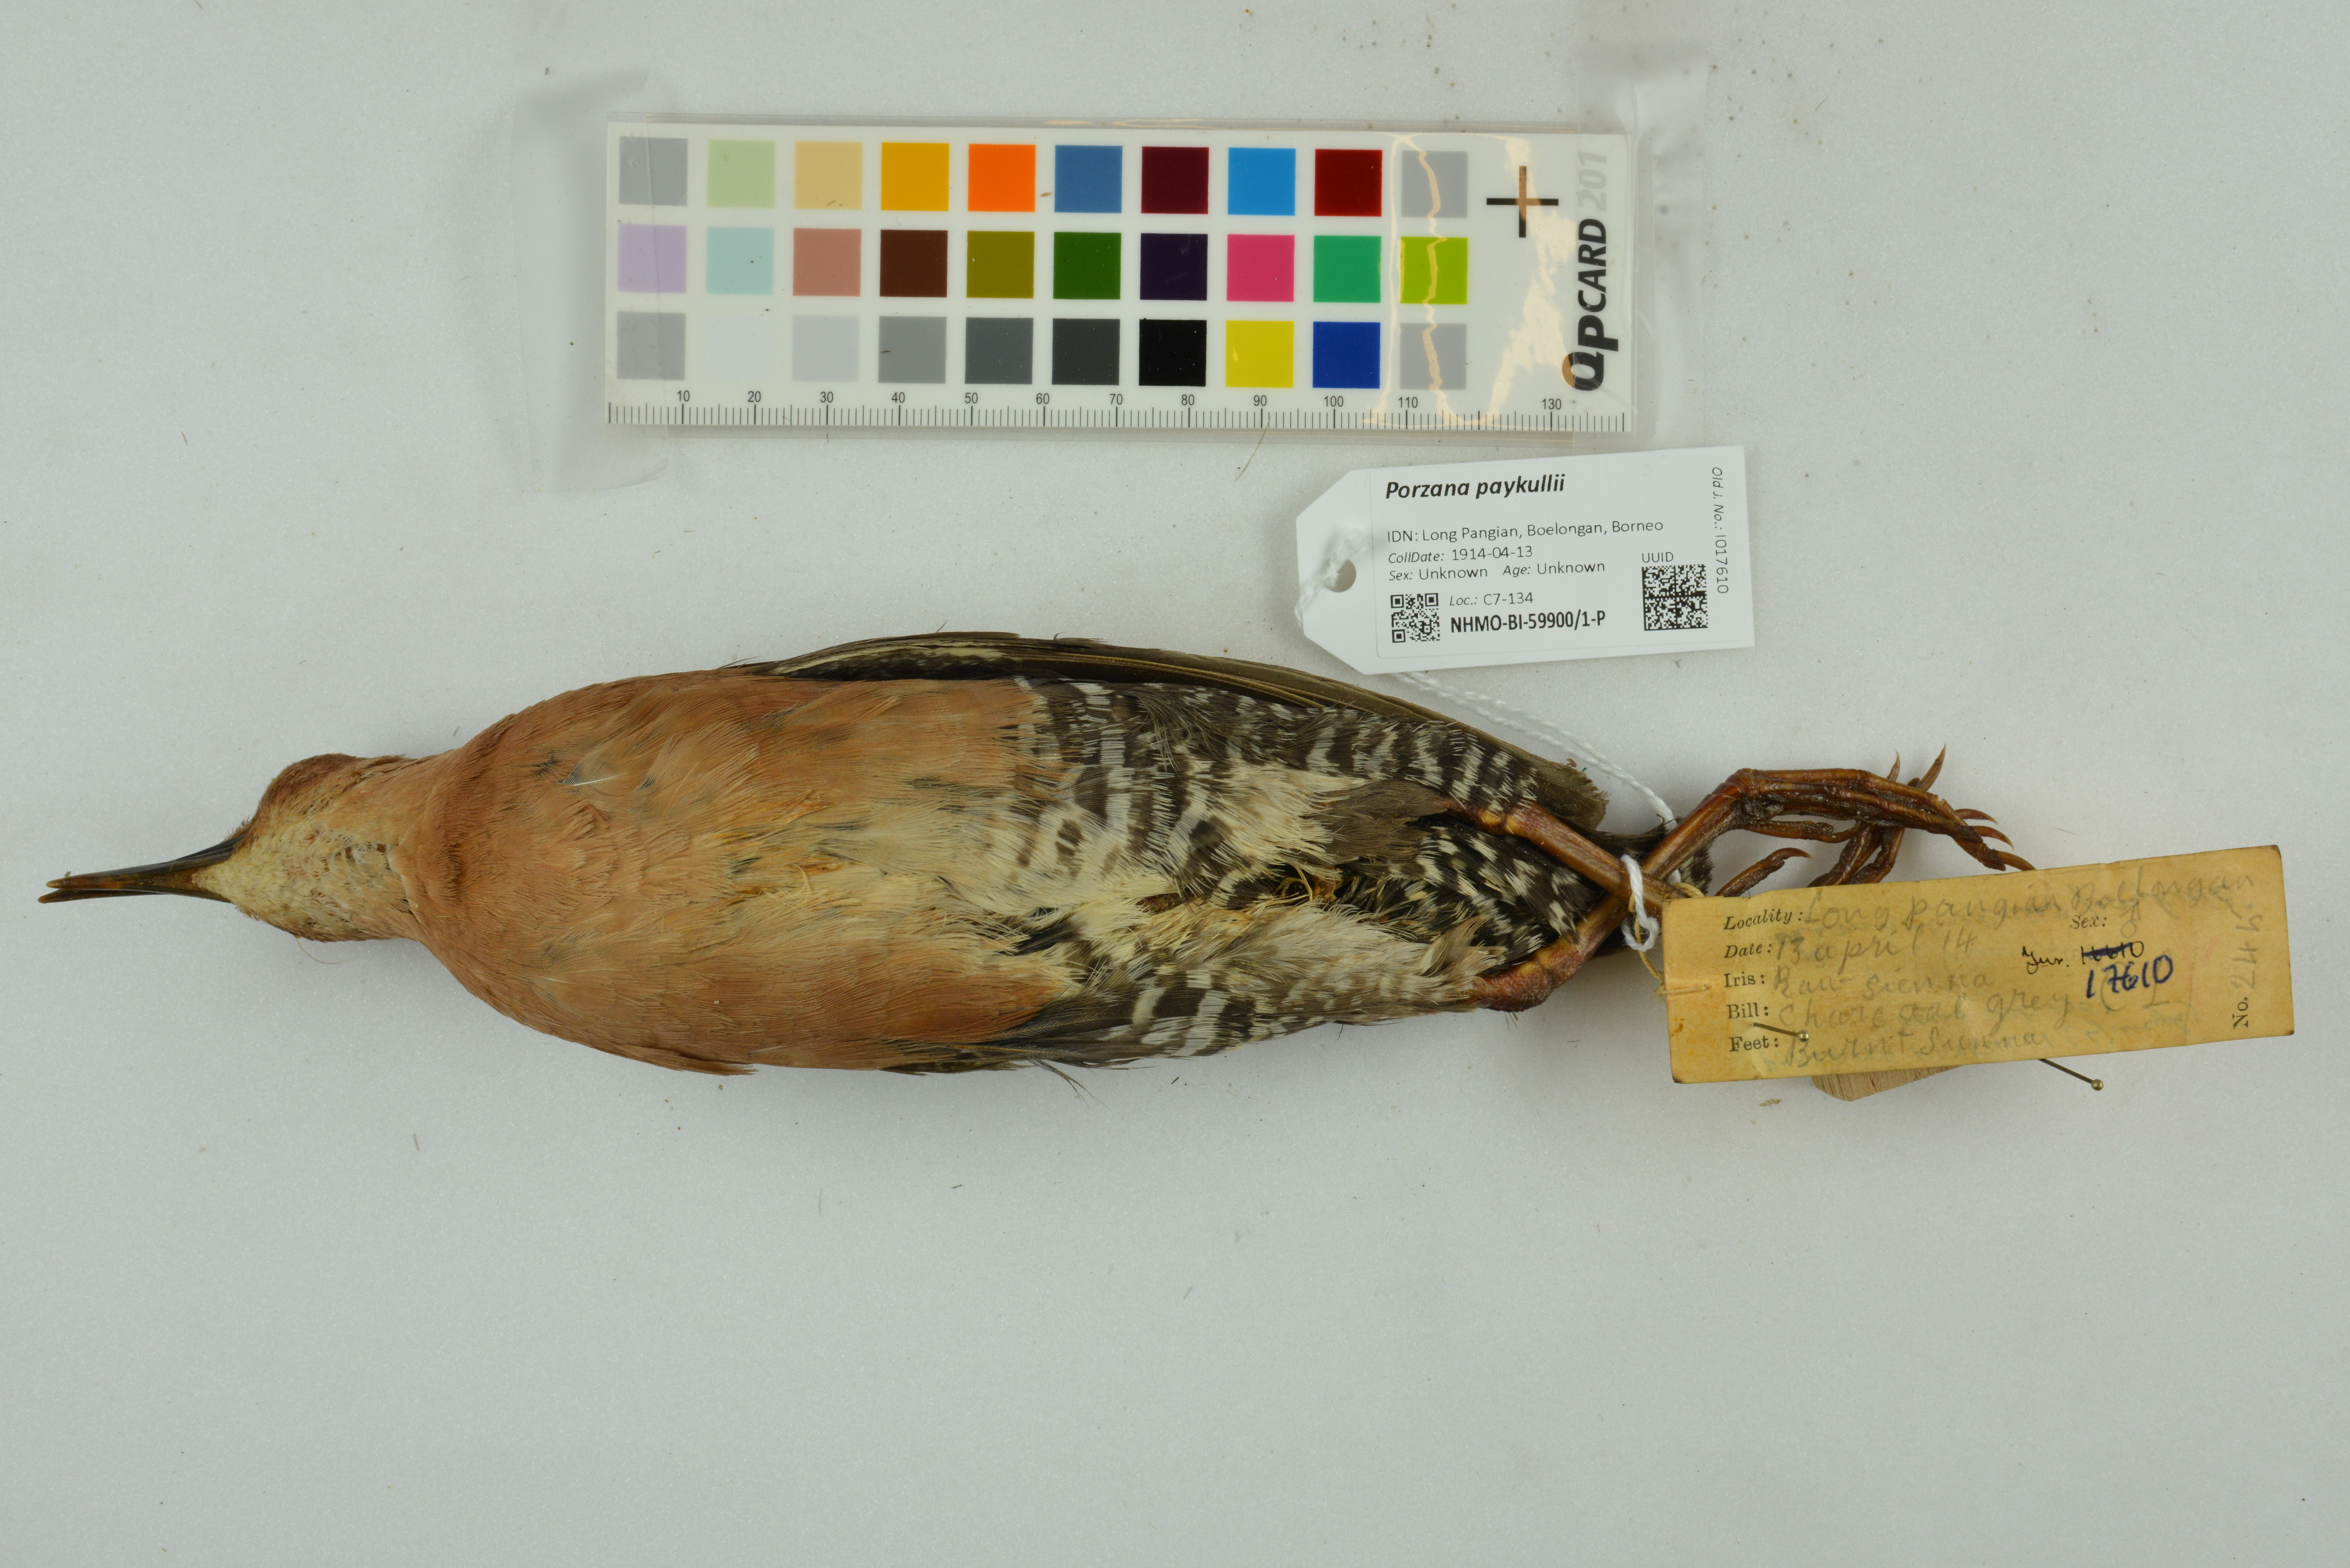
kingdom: Animalia
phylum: Chordata
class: Aves
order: Gruiformes
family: Rallidae
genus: Porzana
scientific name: Porzana paykullii
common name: Band-bellied crake
